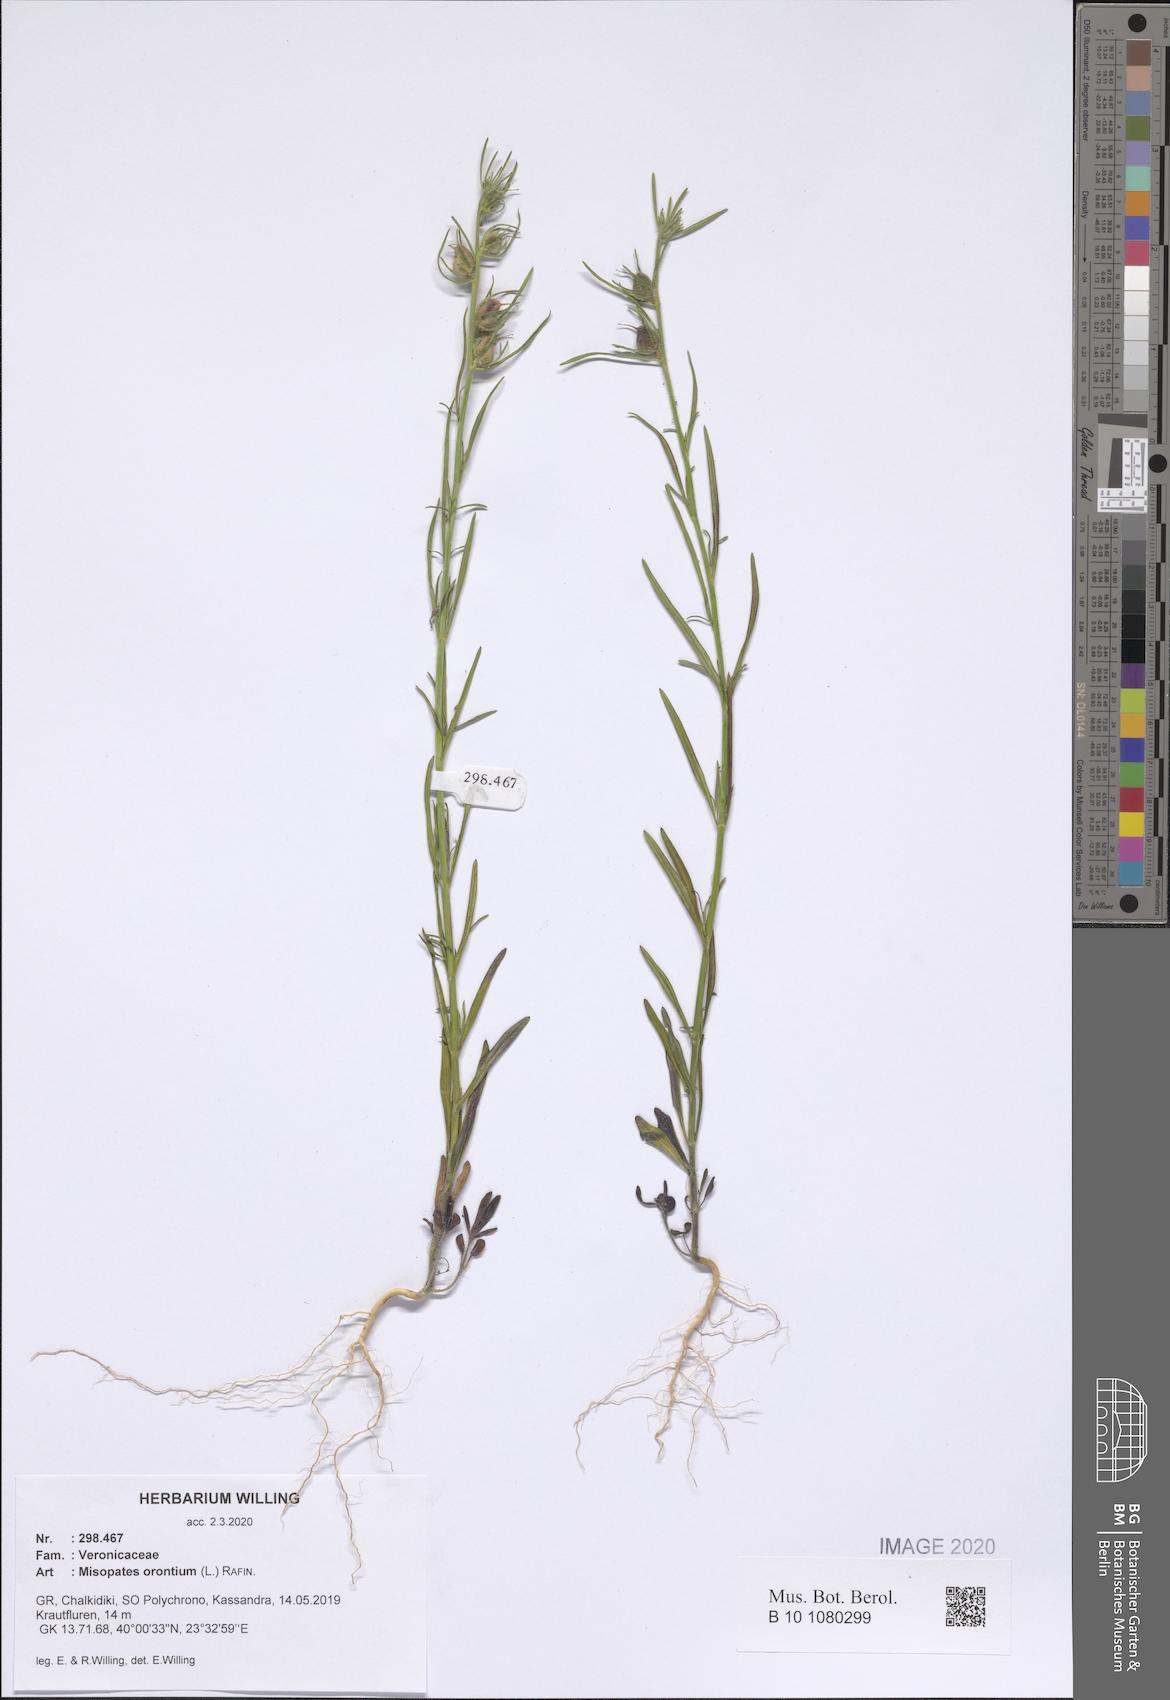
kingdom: Plantae
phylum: Tracheophyta
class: Magnoliopsida
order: Lamiales
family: Plantaginaceae
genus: Misopates
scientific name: Misopates orontium
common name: Weasel's-snout
